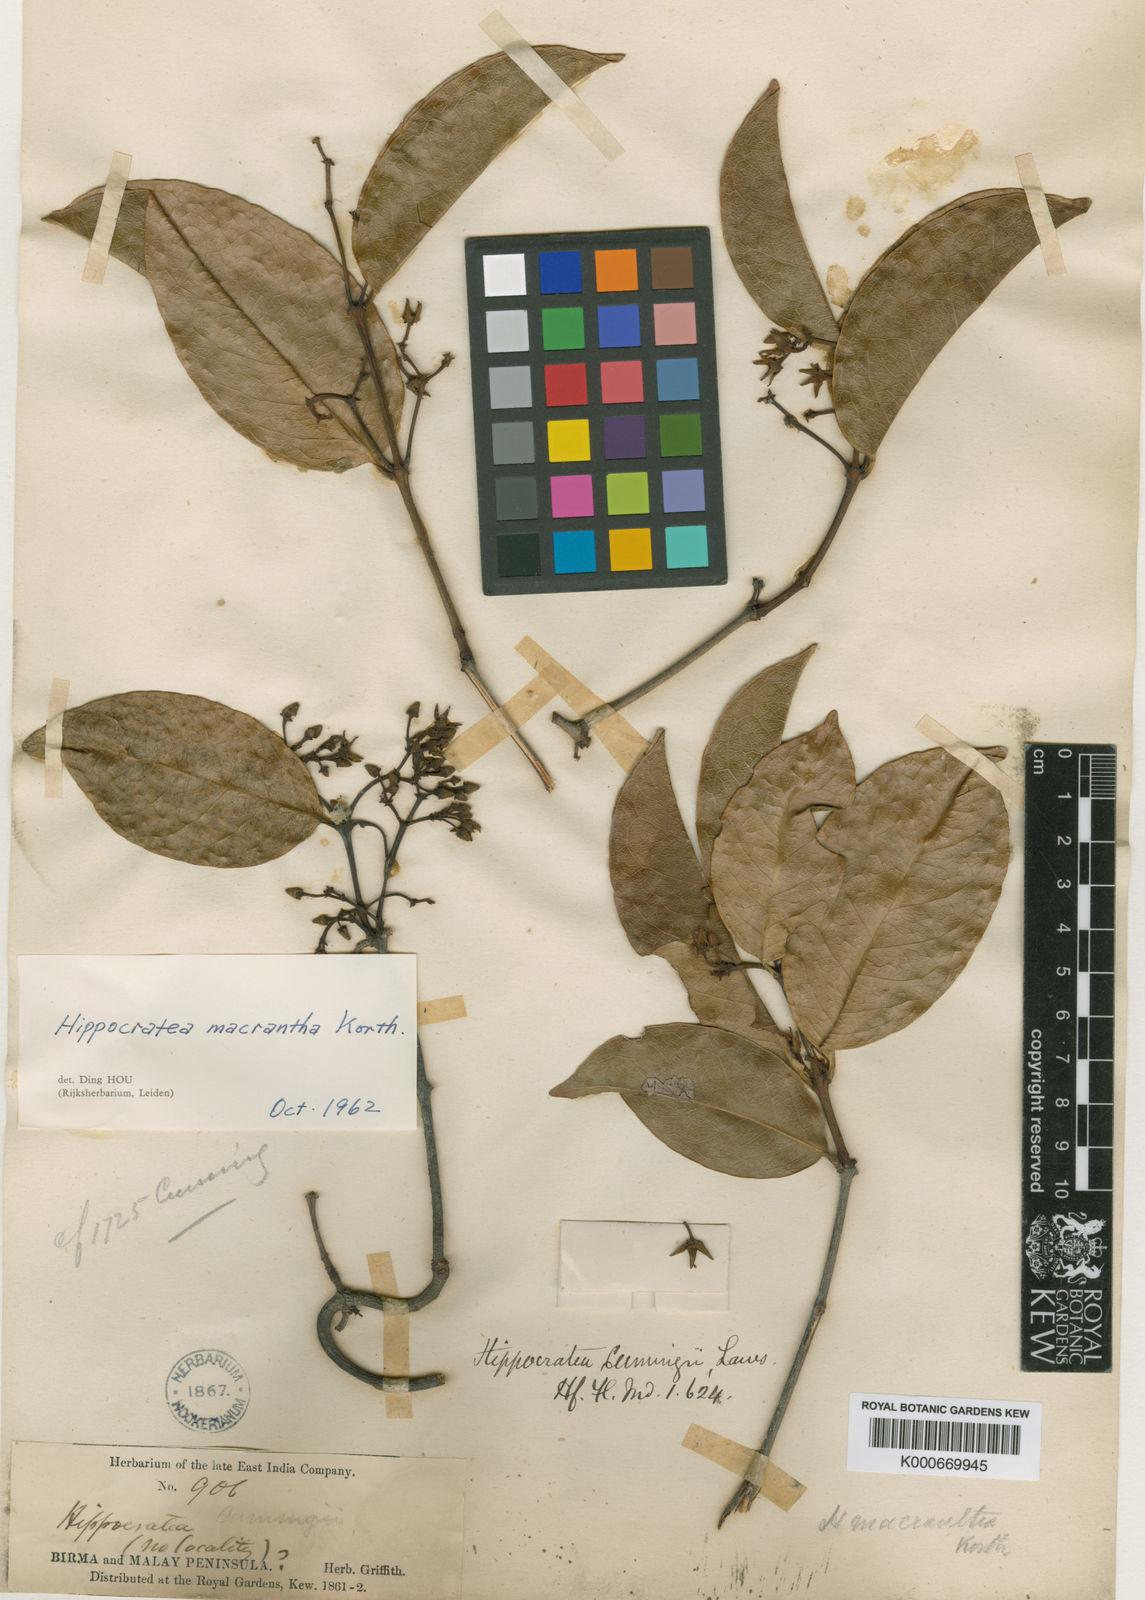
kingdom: Plantae
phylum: Tracheophyta
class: Magnoliopsida
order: Celastrales
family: Celastraceae
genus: Loeseneriella
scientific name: Loeseneriella macrantha
